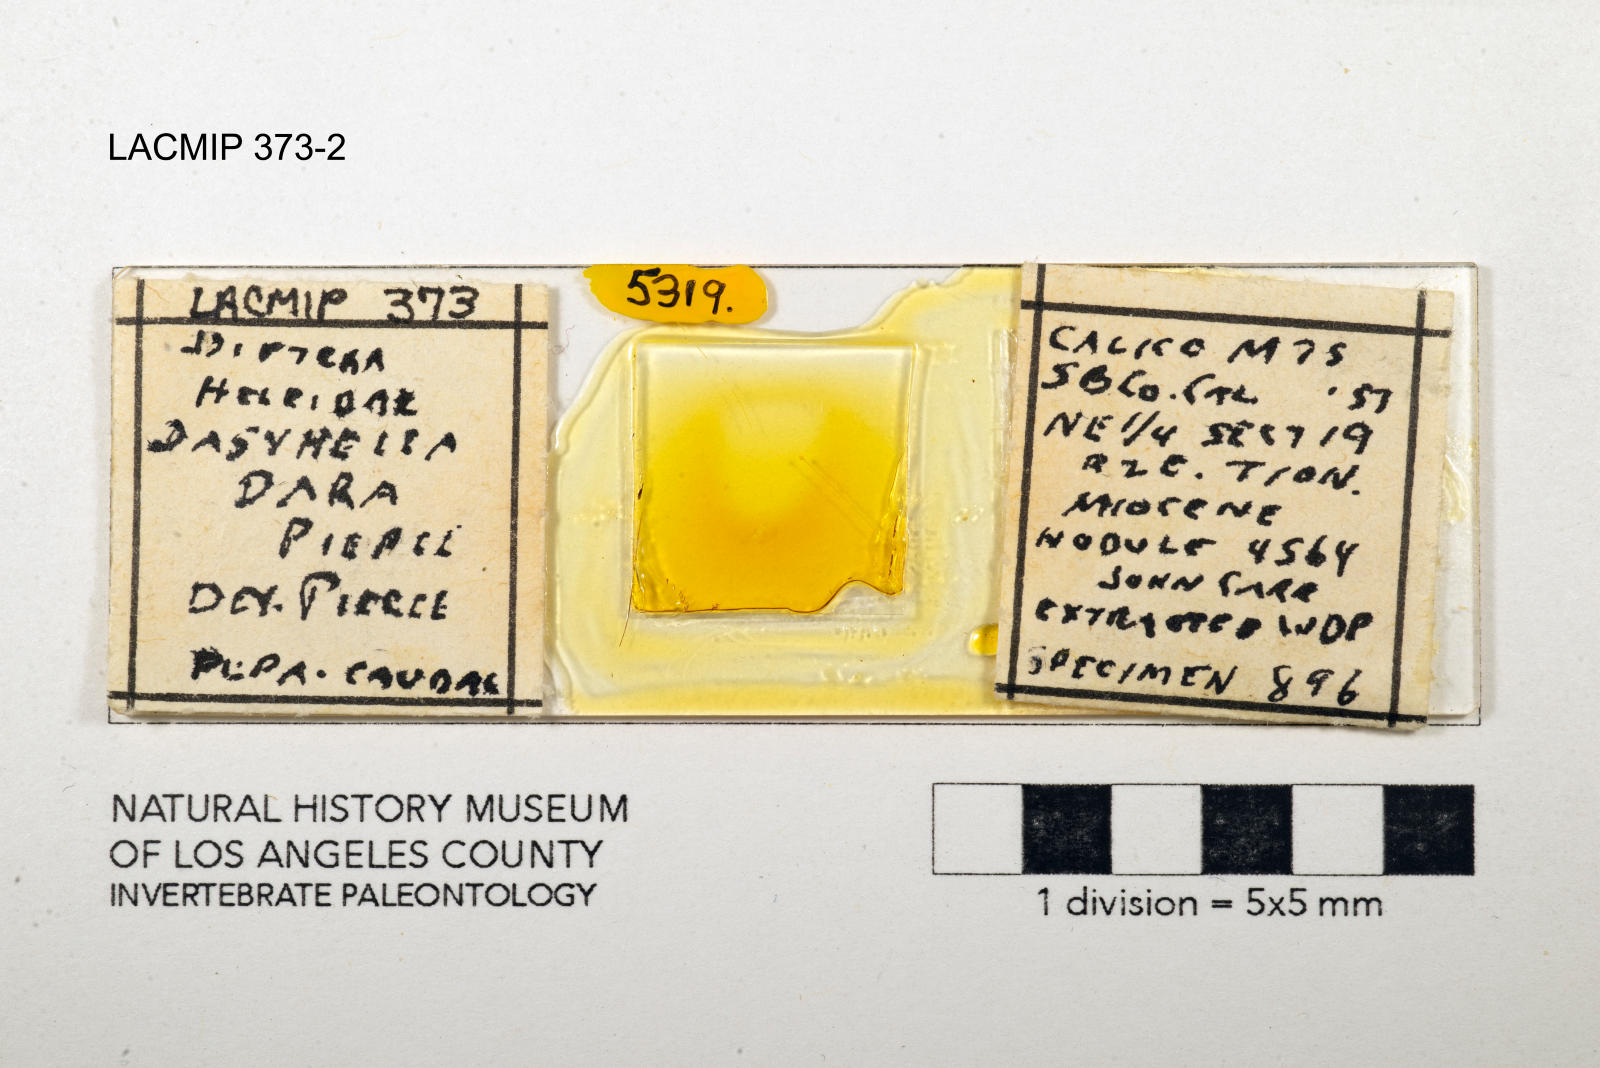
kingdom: Animalia
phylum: Arthropoda
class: Insecta
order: Diptera
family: Ceratopogonidae
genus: Dasyhelea
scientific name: Dasyhelea dara
